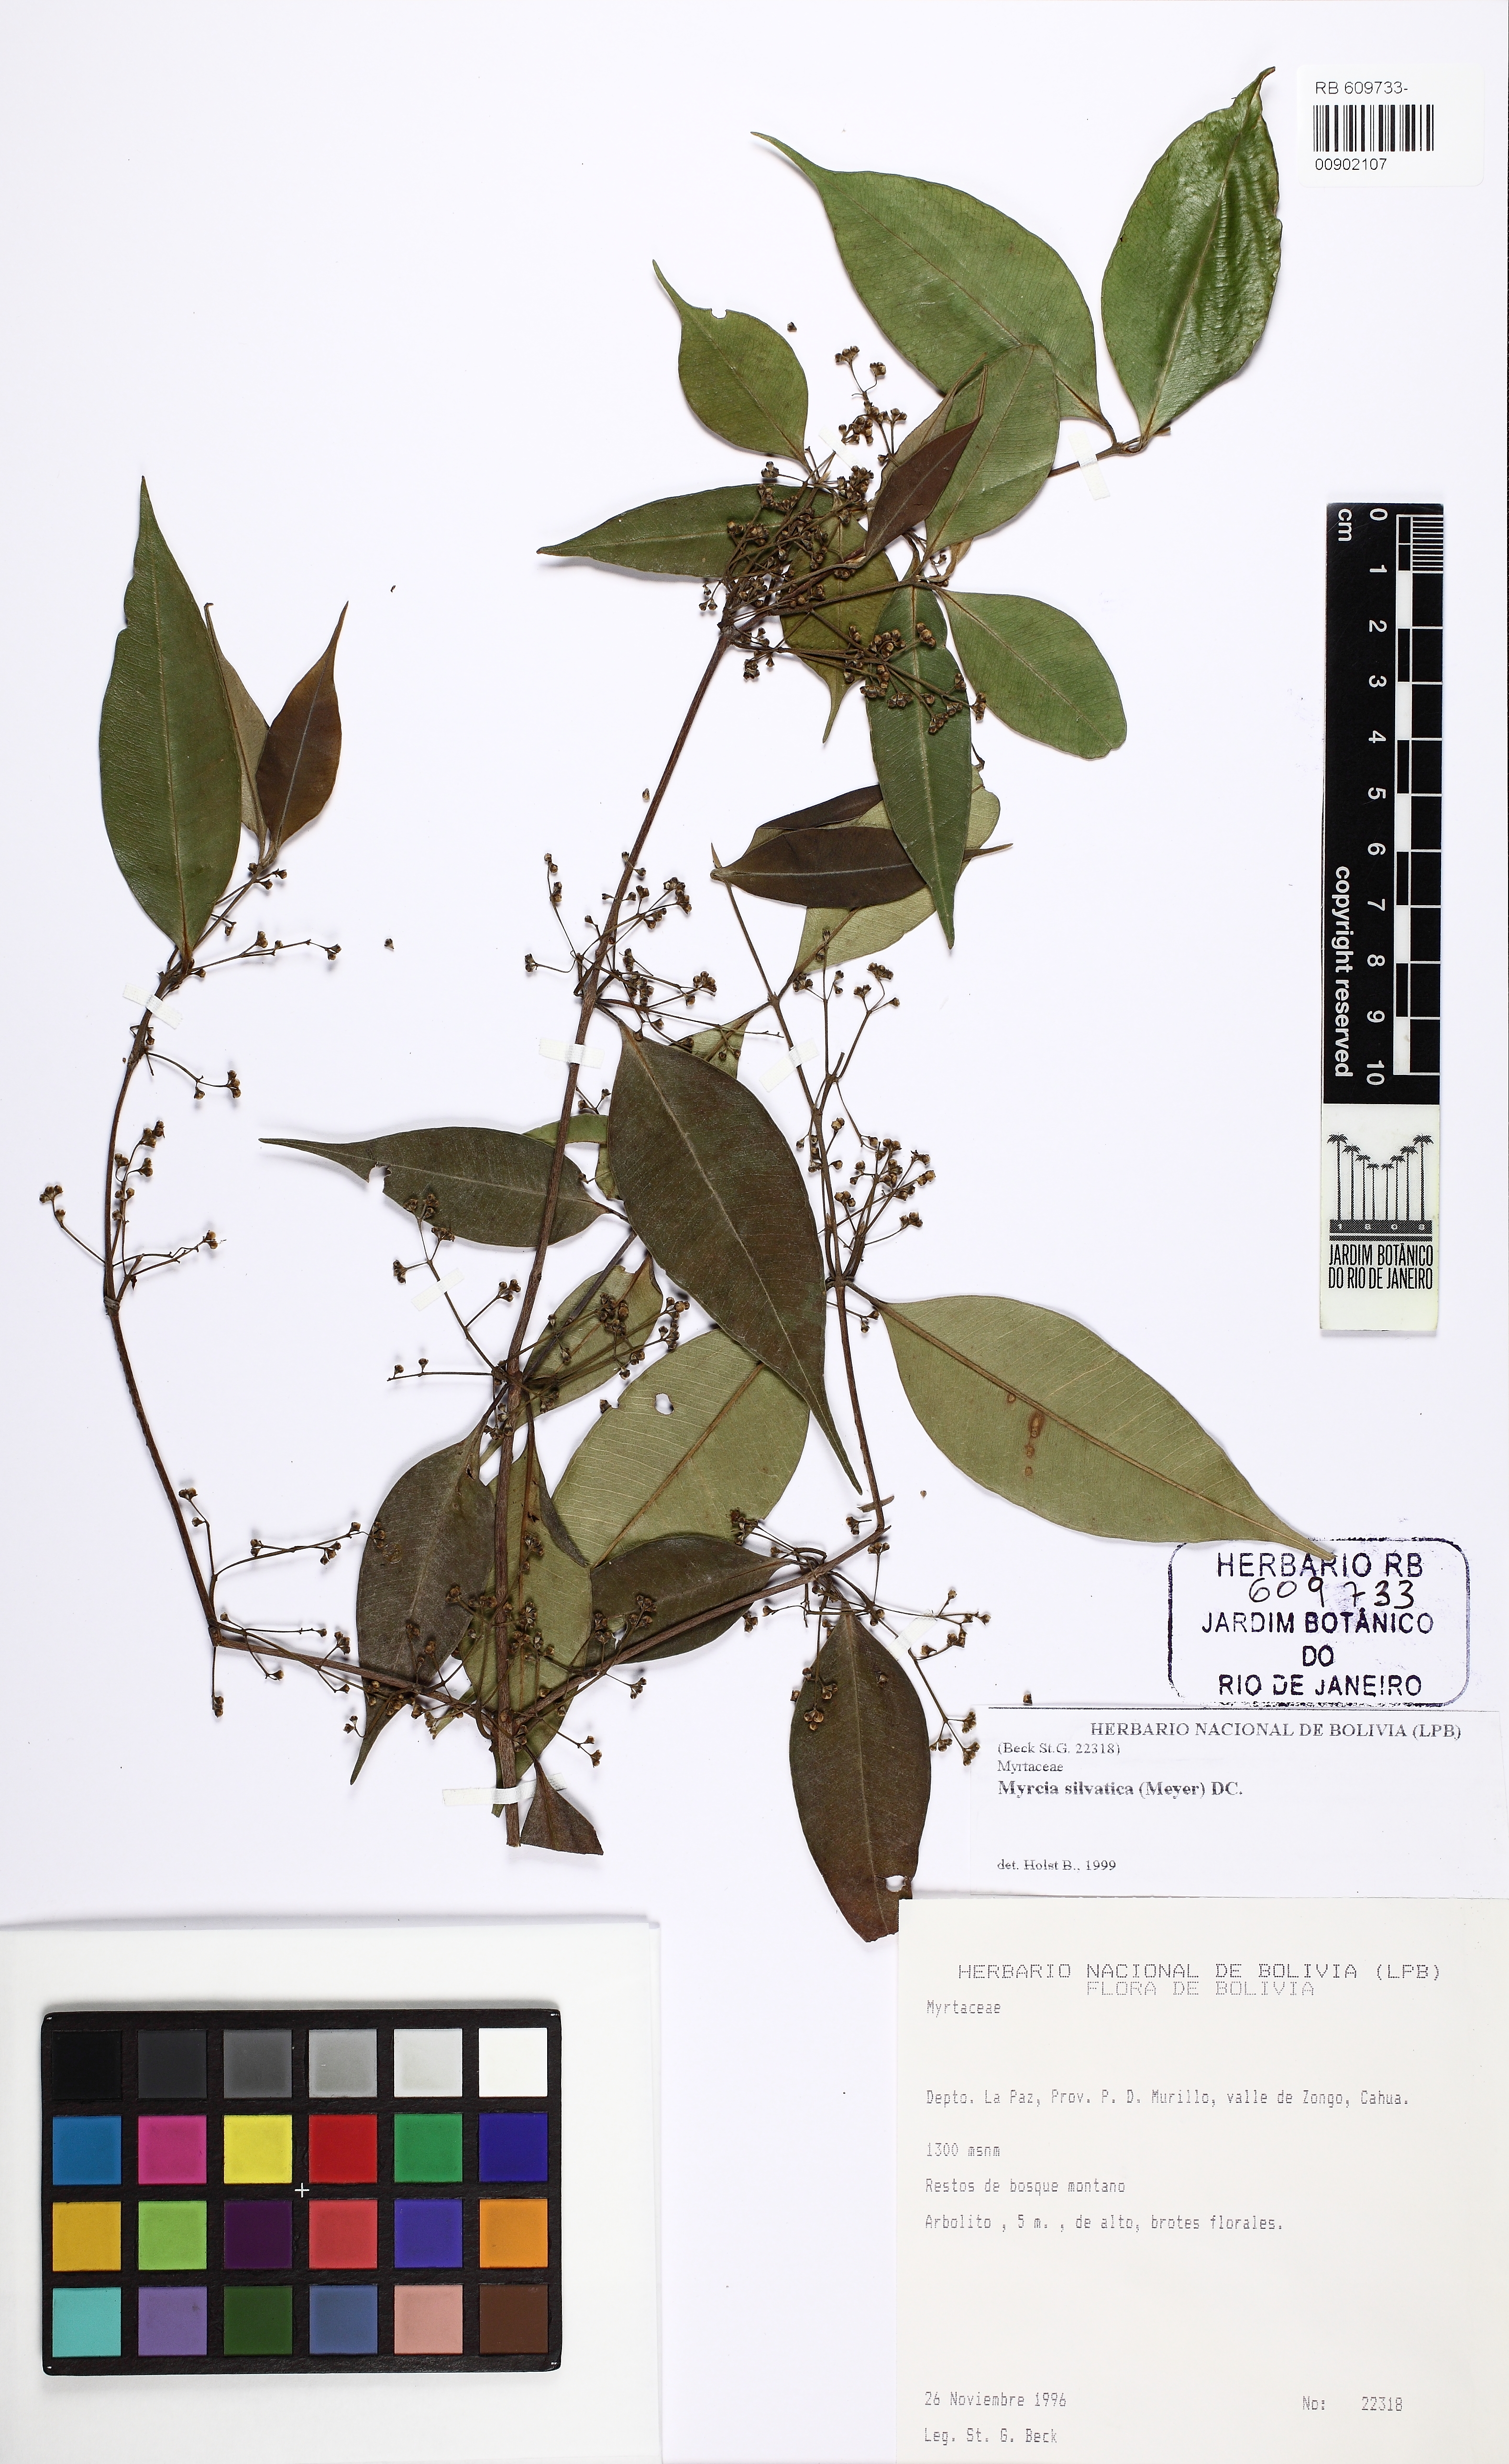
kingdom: Plantae
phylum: Tracheophyta
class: Magnoliopsida
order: Myrtales
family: Myrtaceae
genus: Myrcia
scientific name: Myrcia sylvatica
